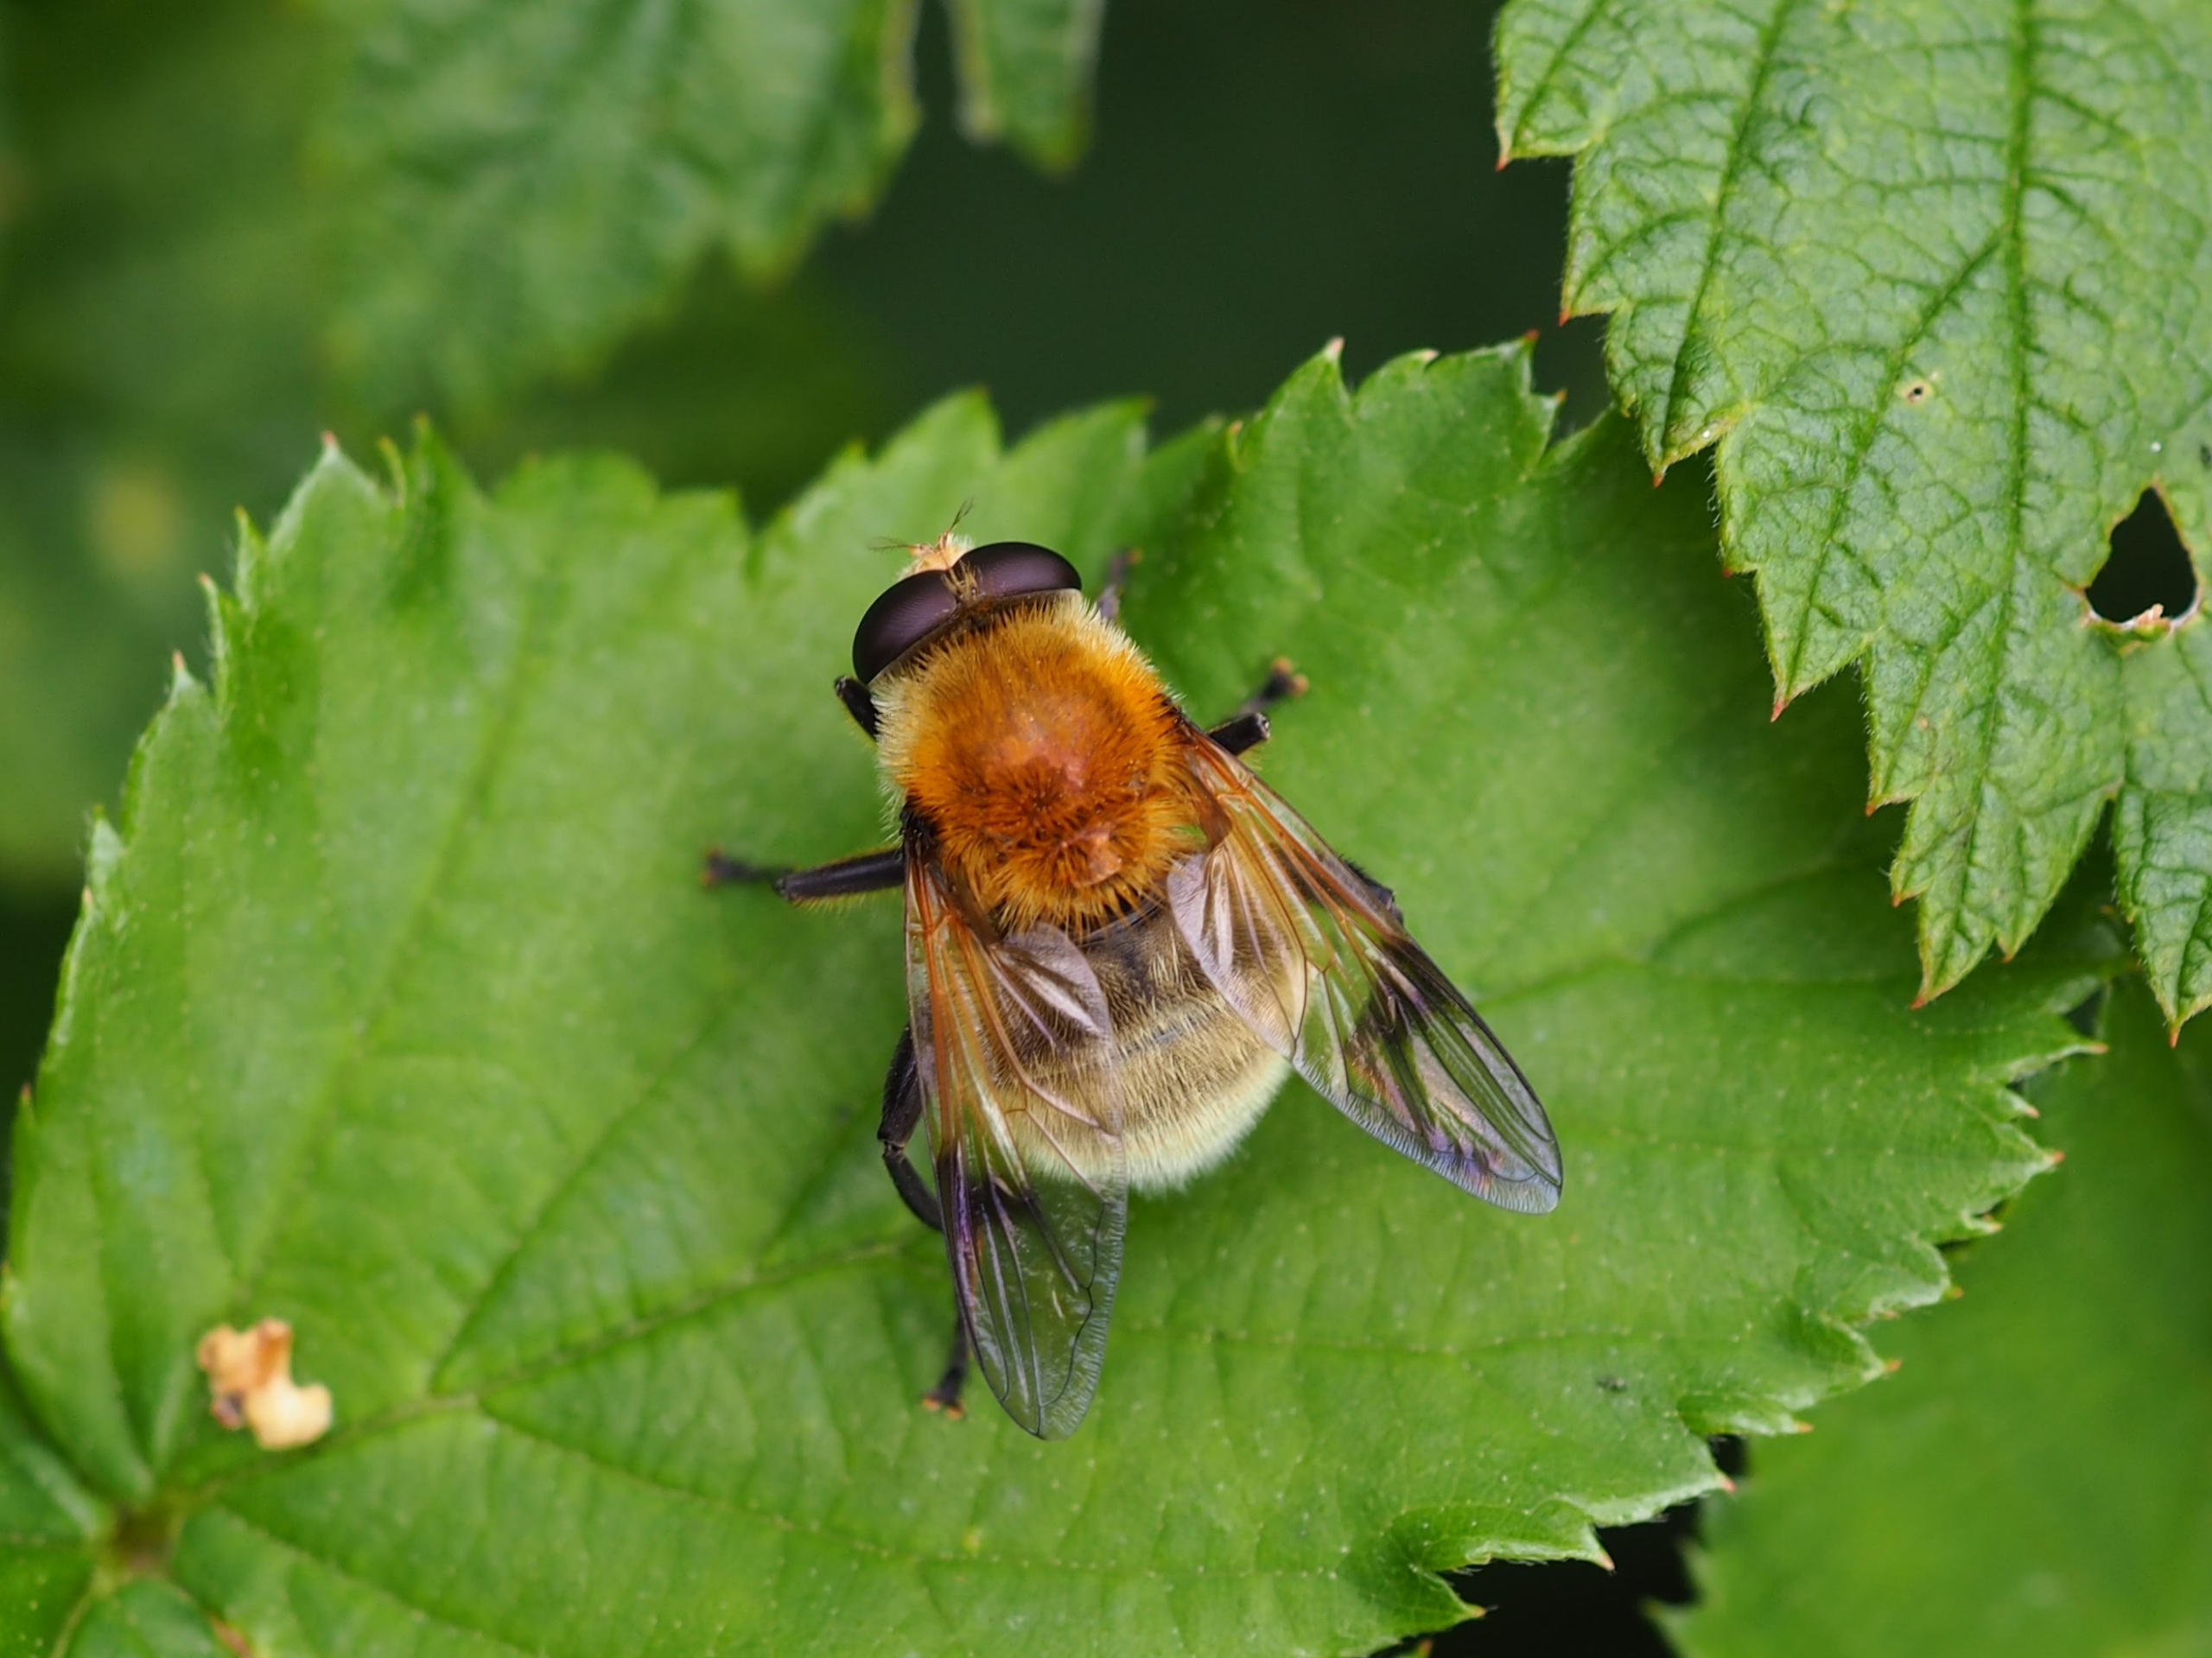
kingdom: Animalia
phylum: Arthropoda
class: Insecta
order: Diptera
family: Syrphidae
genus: Sericomyia
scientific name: Sericomyia superbiens
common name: Brun bjørnesvirreflue
